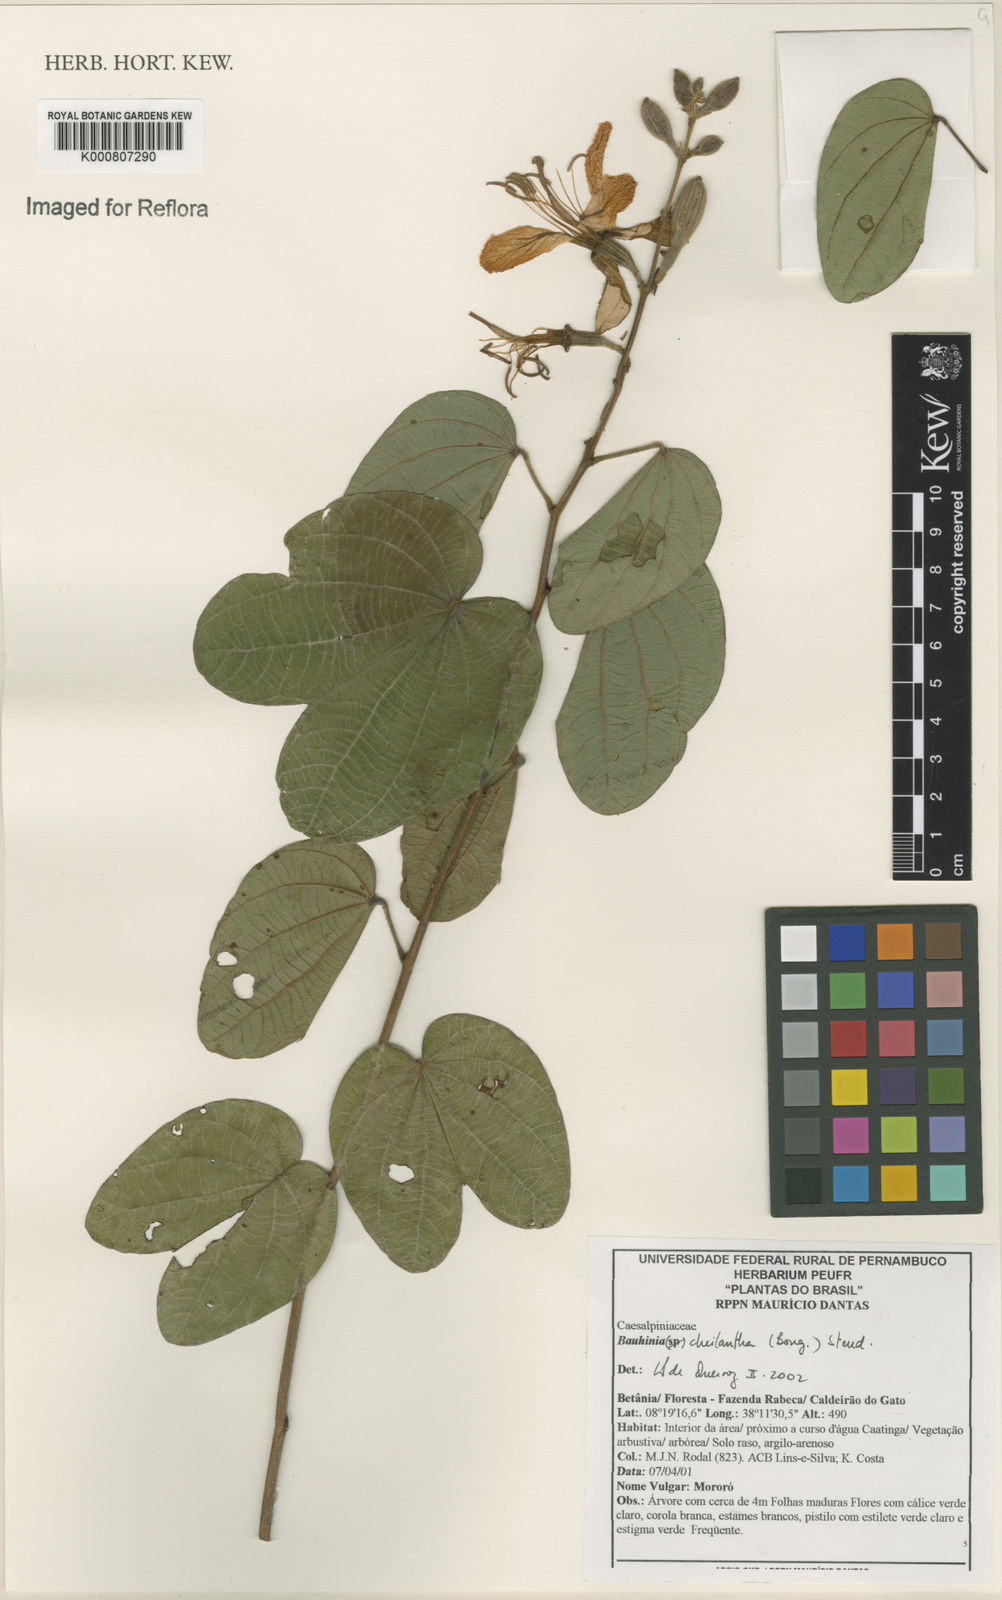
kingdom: Plantae
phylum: Tracheophyta
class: Magnoliopsida
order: Fabales
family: Fabaceae
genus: Bauhinia
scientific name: Bauhinia cheilantha
